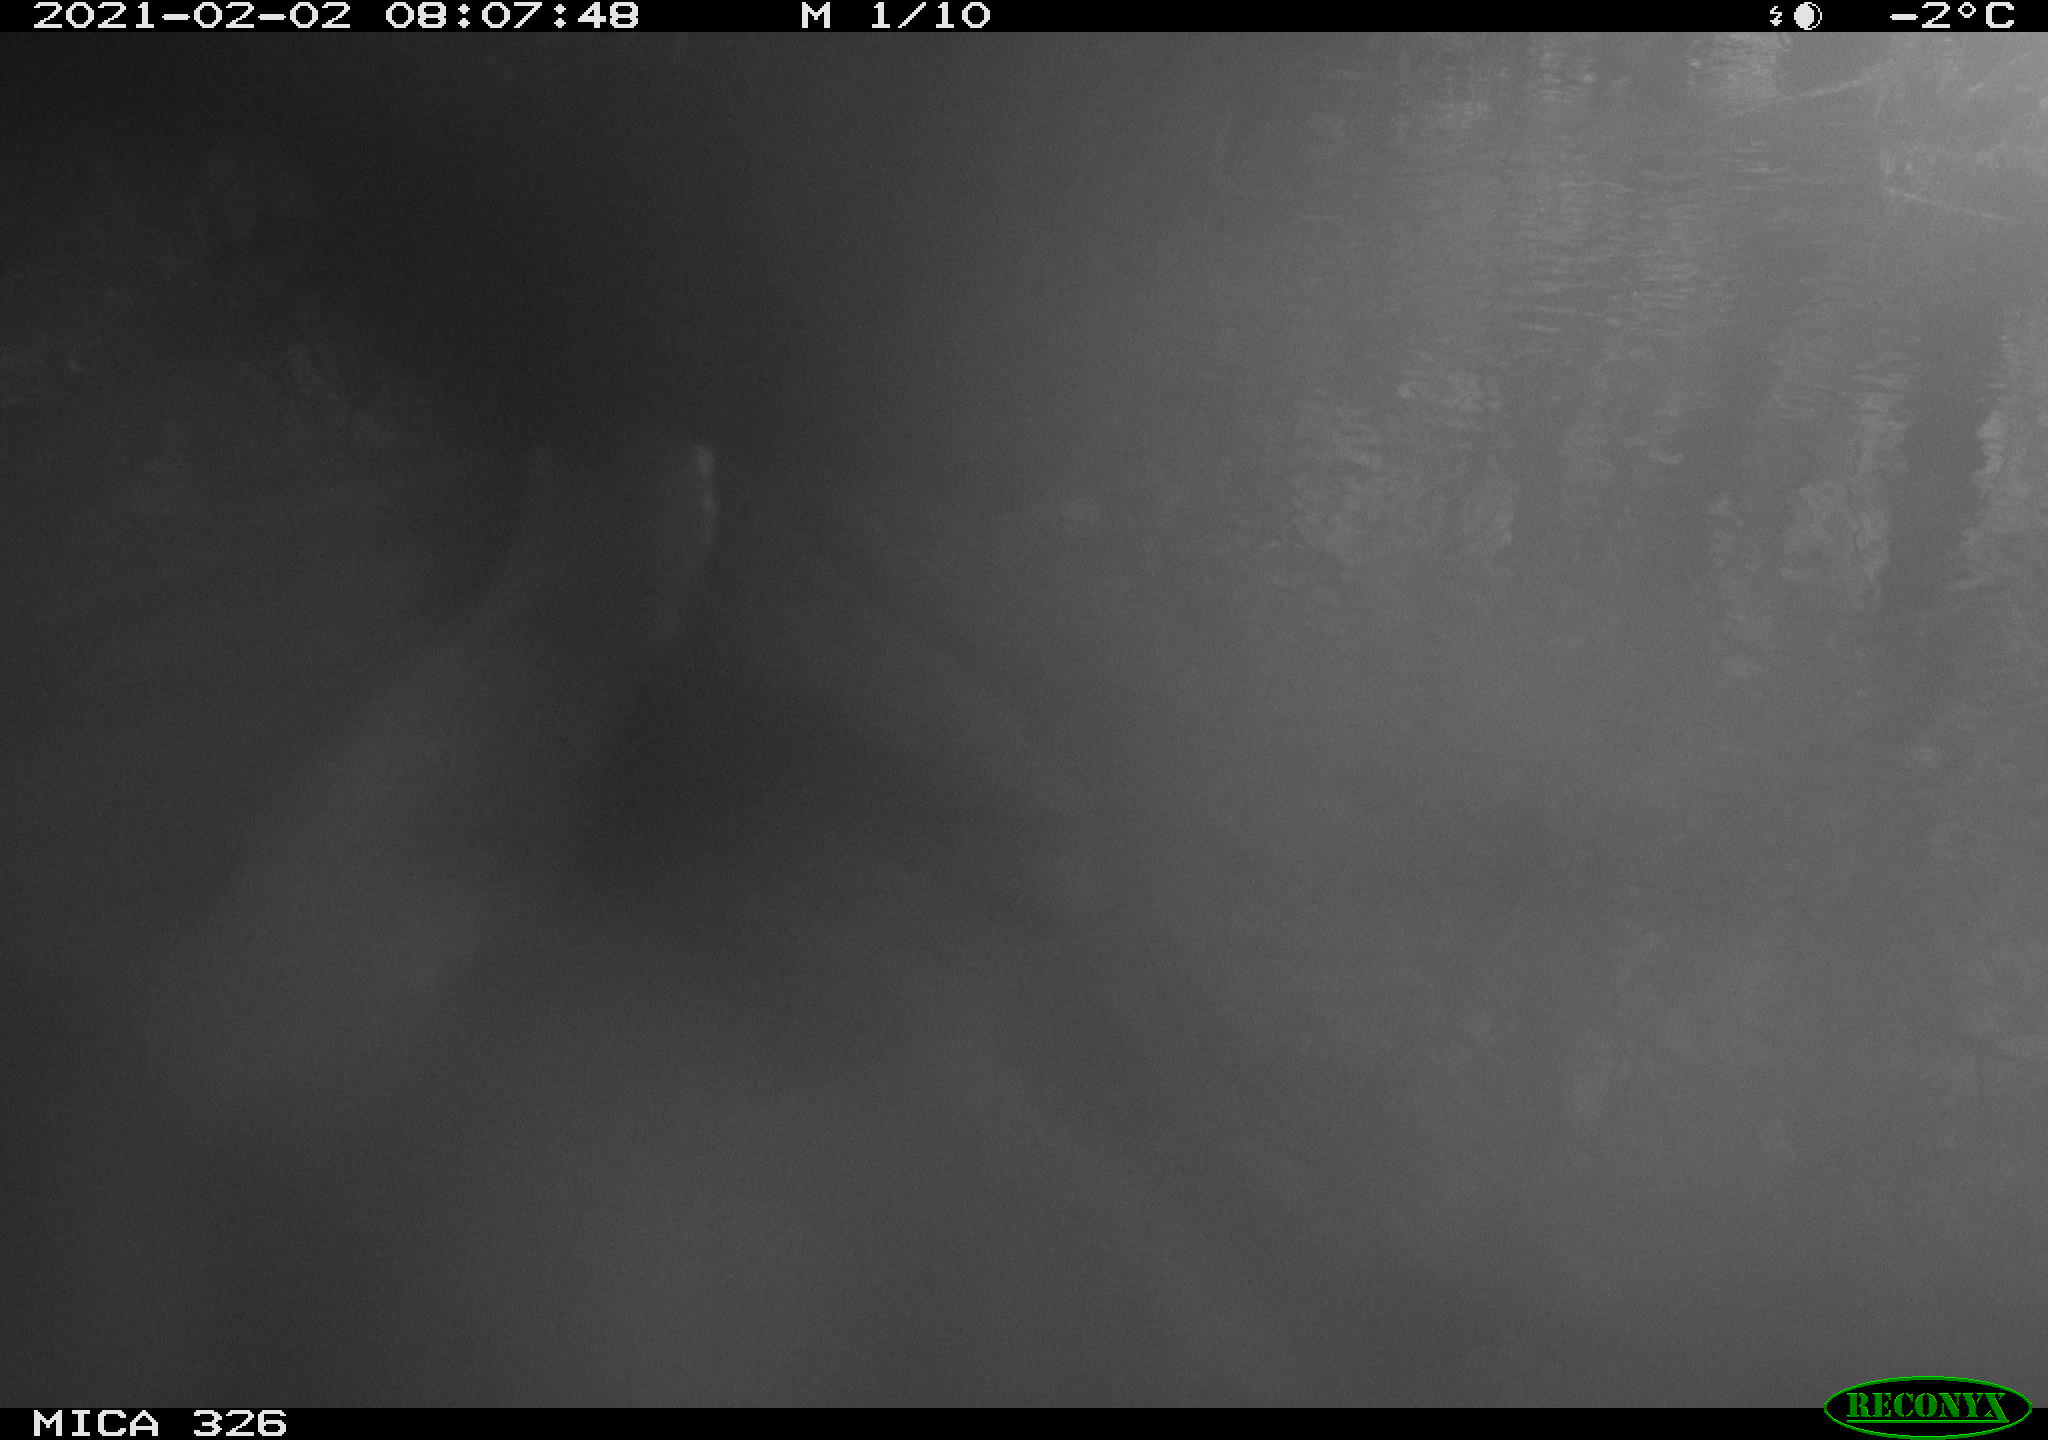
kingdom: Animalia
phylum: Chordata
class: Mammalia
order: Carnivora
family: Mustelidae
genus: Lutra
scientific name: Lutra lutra
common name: European otter
